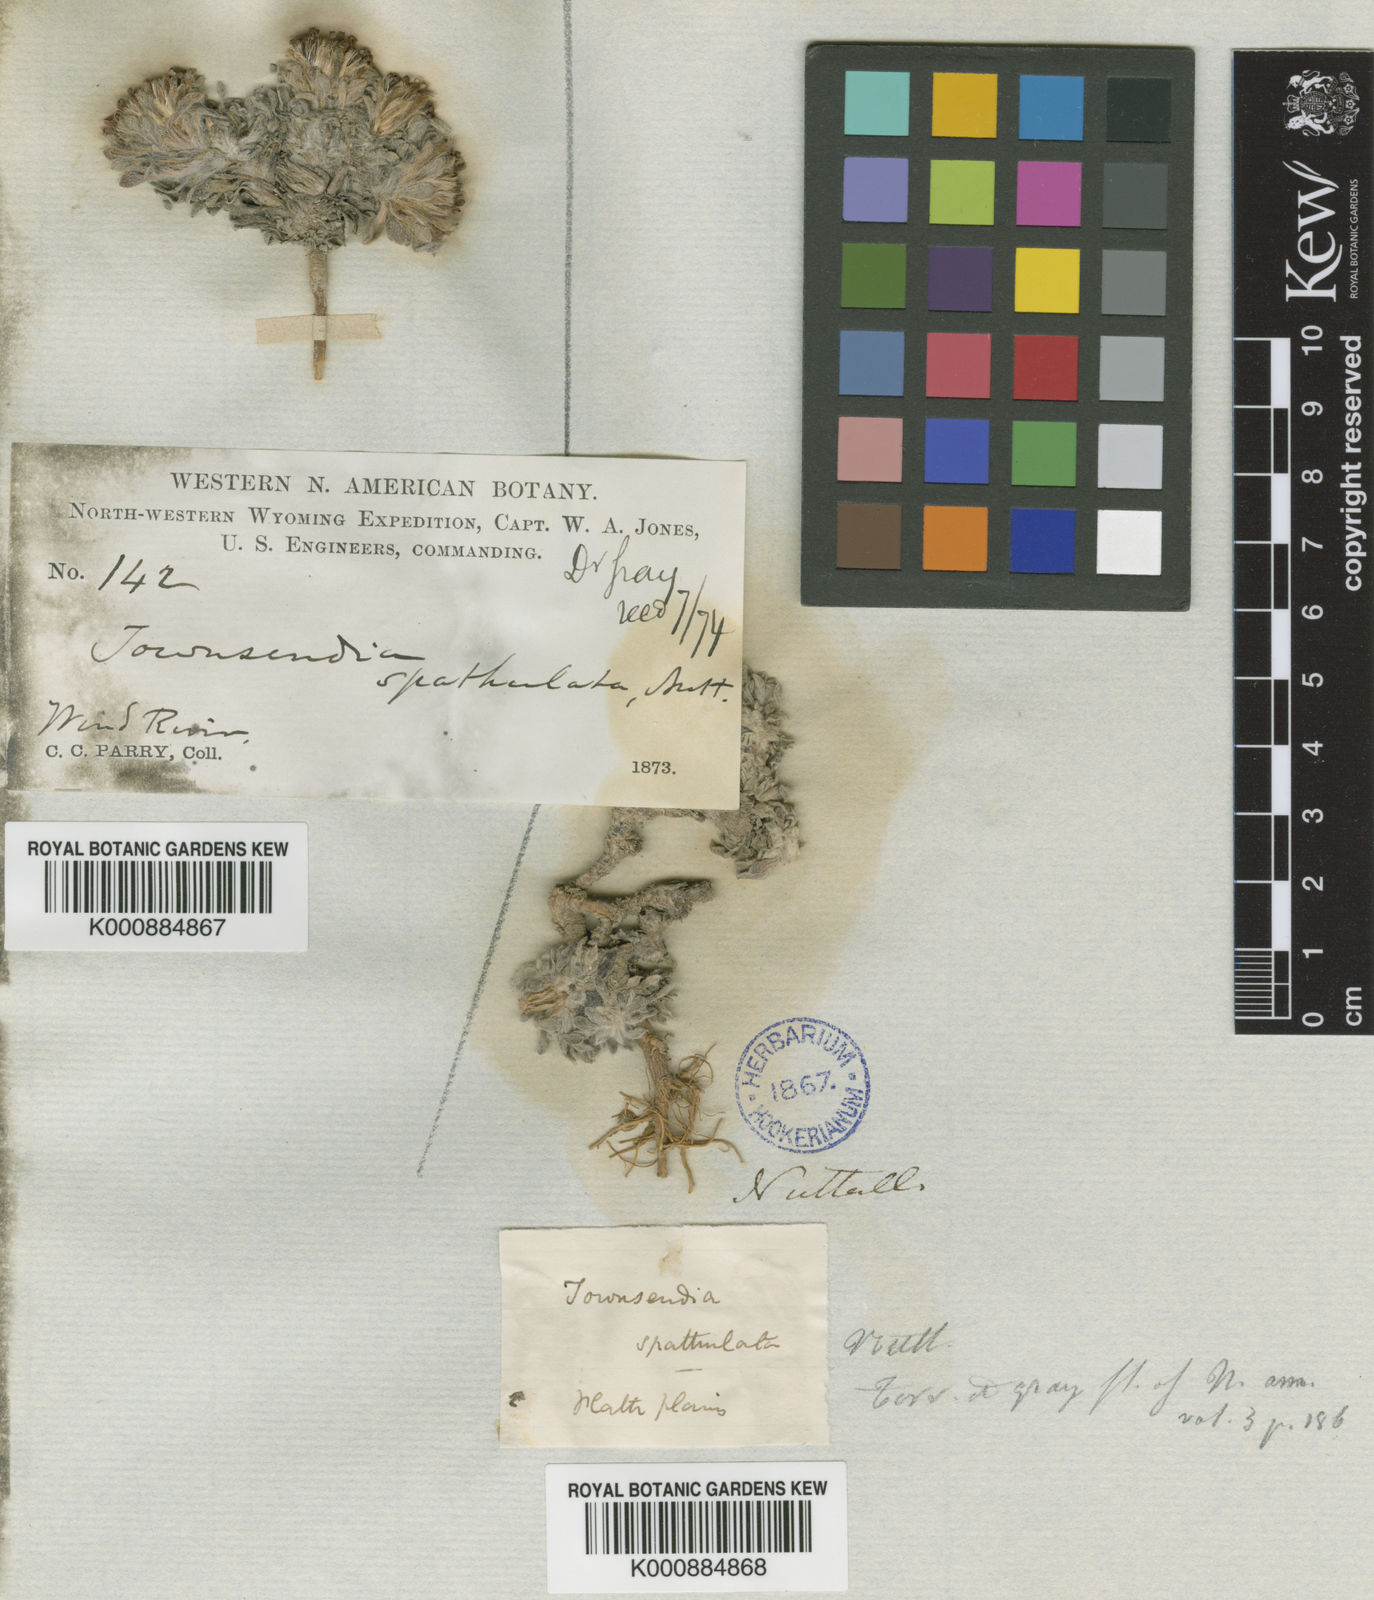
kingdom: Plantae
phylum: Tracheophyta
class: Magnoliopsida
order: Asterales
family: Asteraceae
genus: Townsendia
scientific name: Townsendia spathulata
